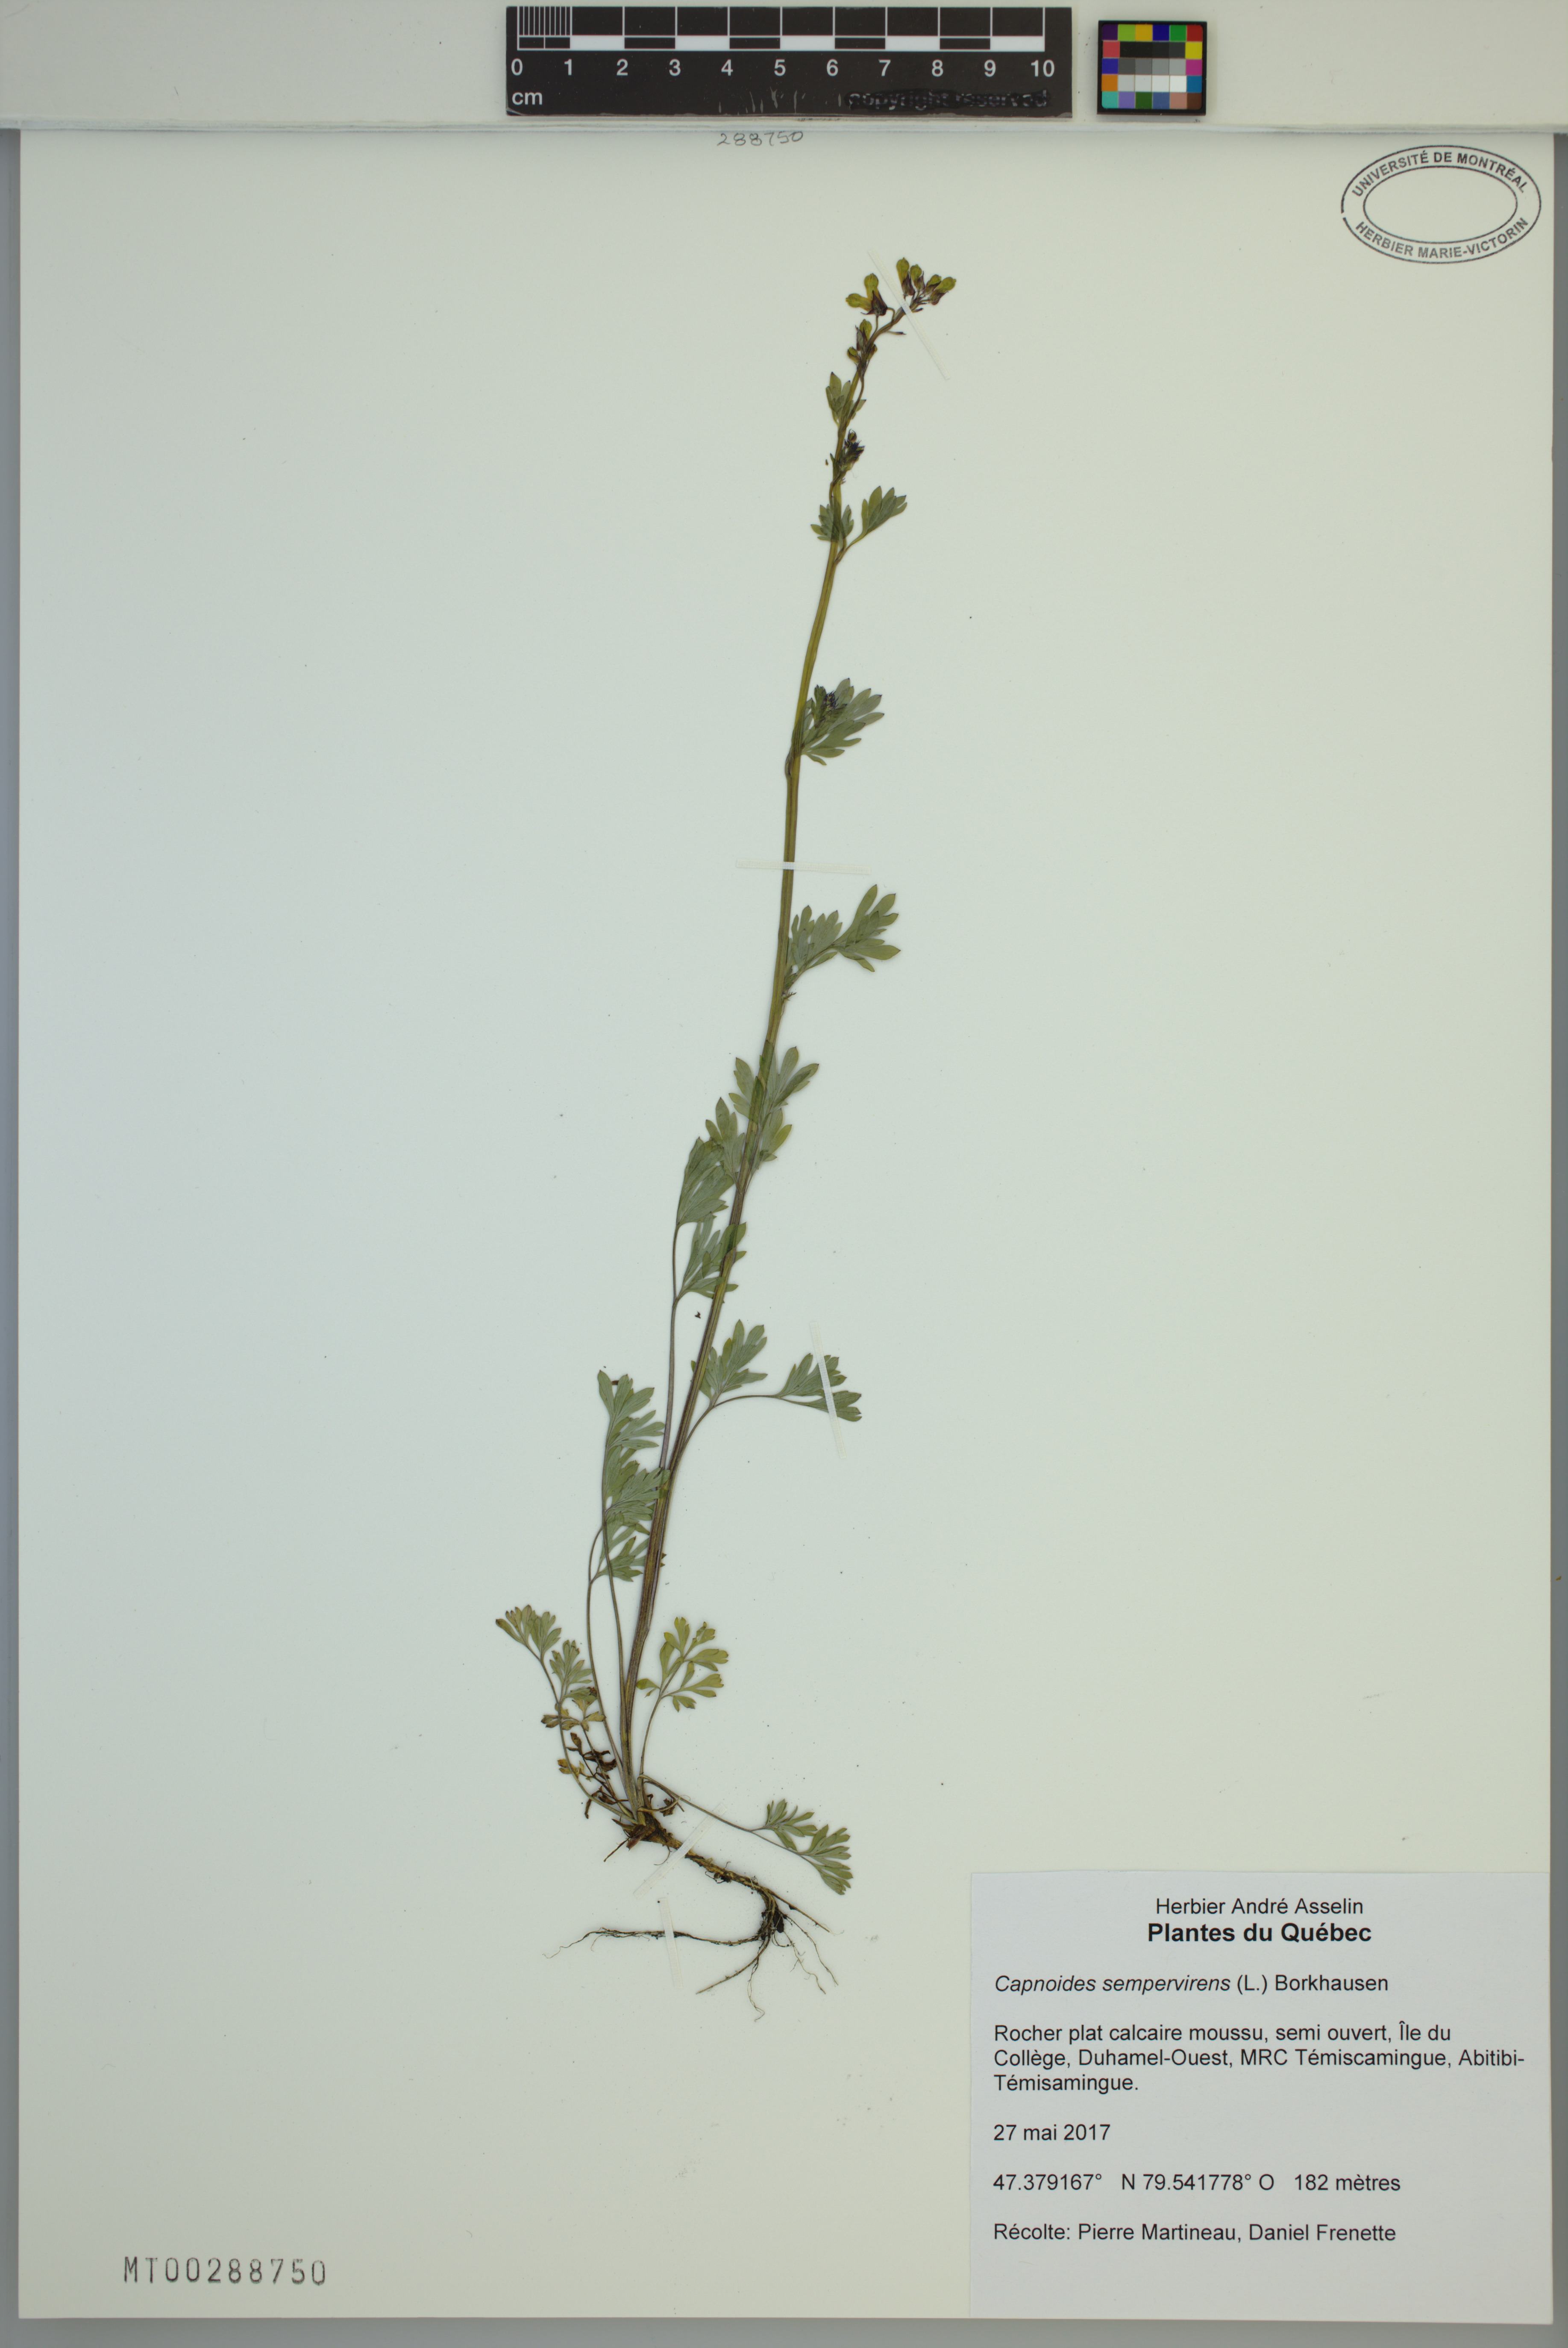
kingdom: Plantae
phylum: Tracheophyta
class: Magnoliopsida
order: Ranunculales
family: Papaveraceae
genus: Capnoides
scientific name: Capnoides sempervirens
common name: Rock harlequin
